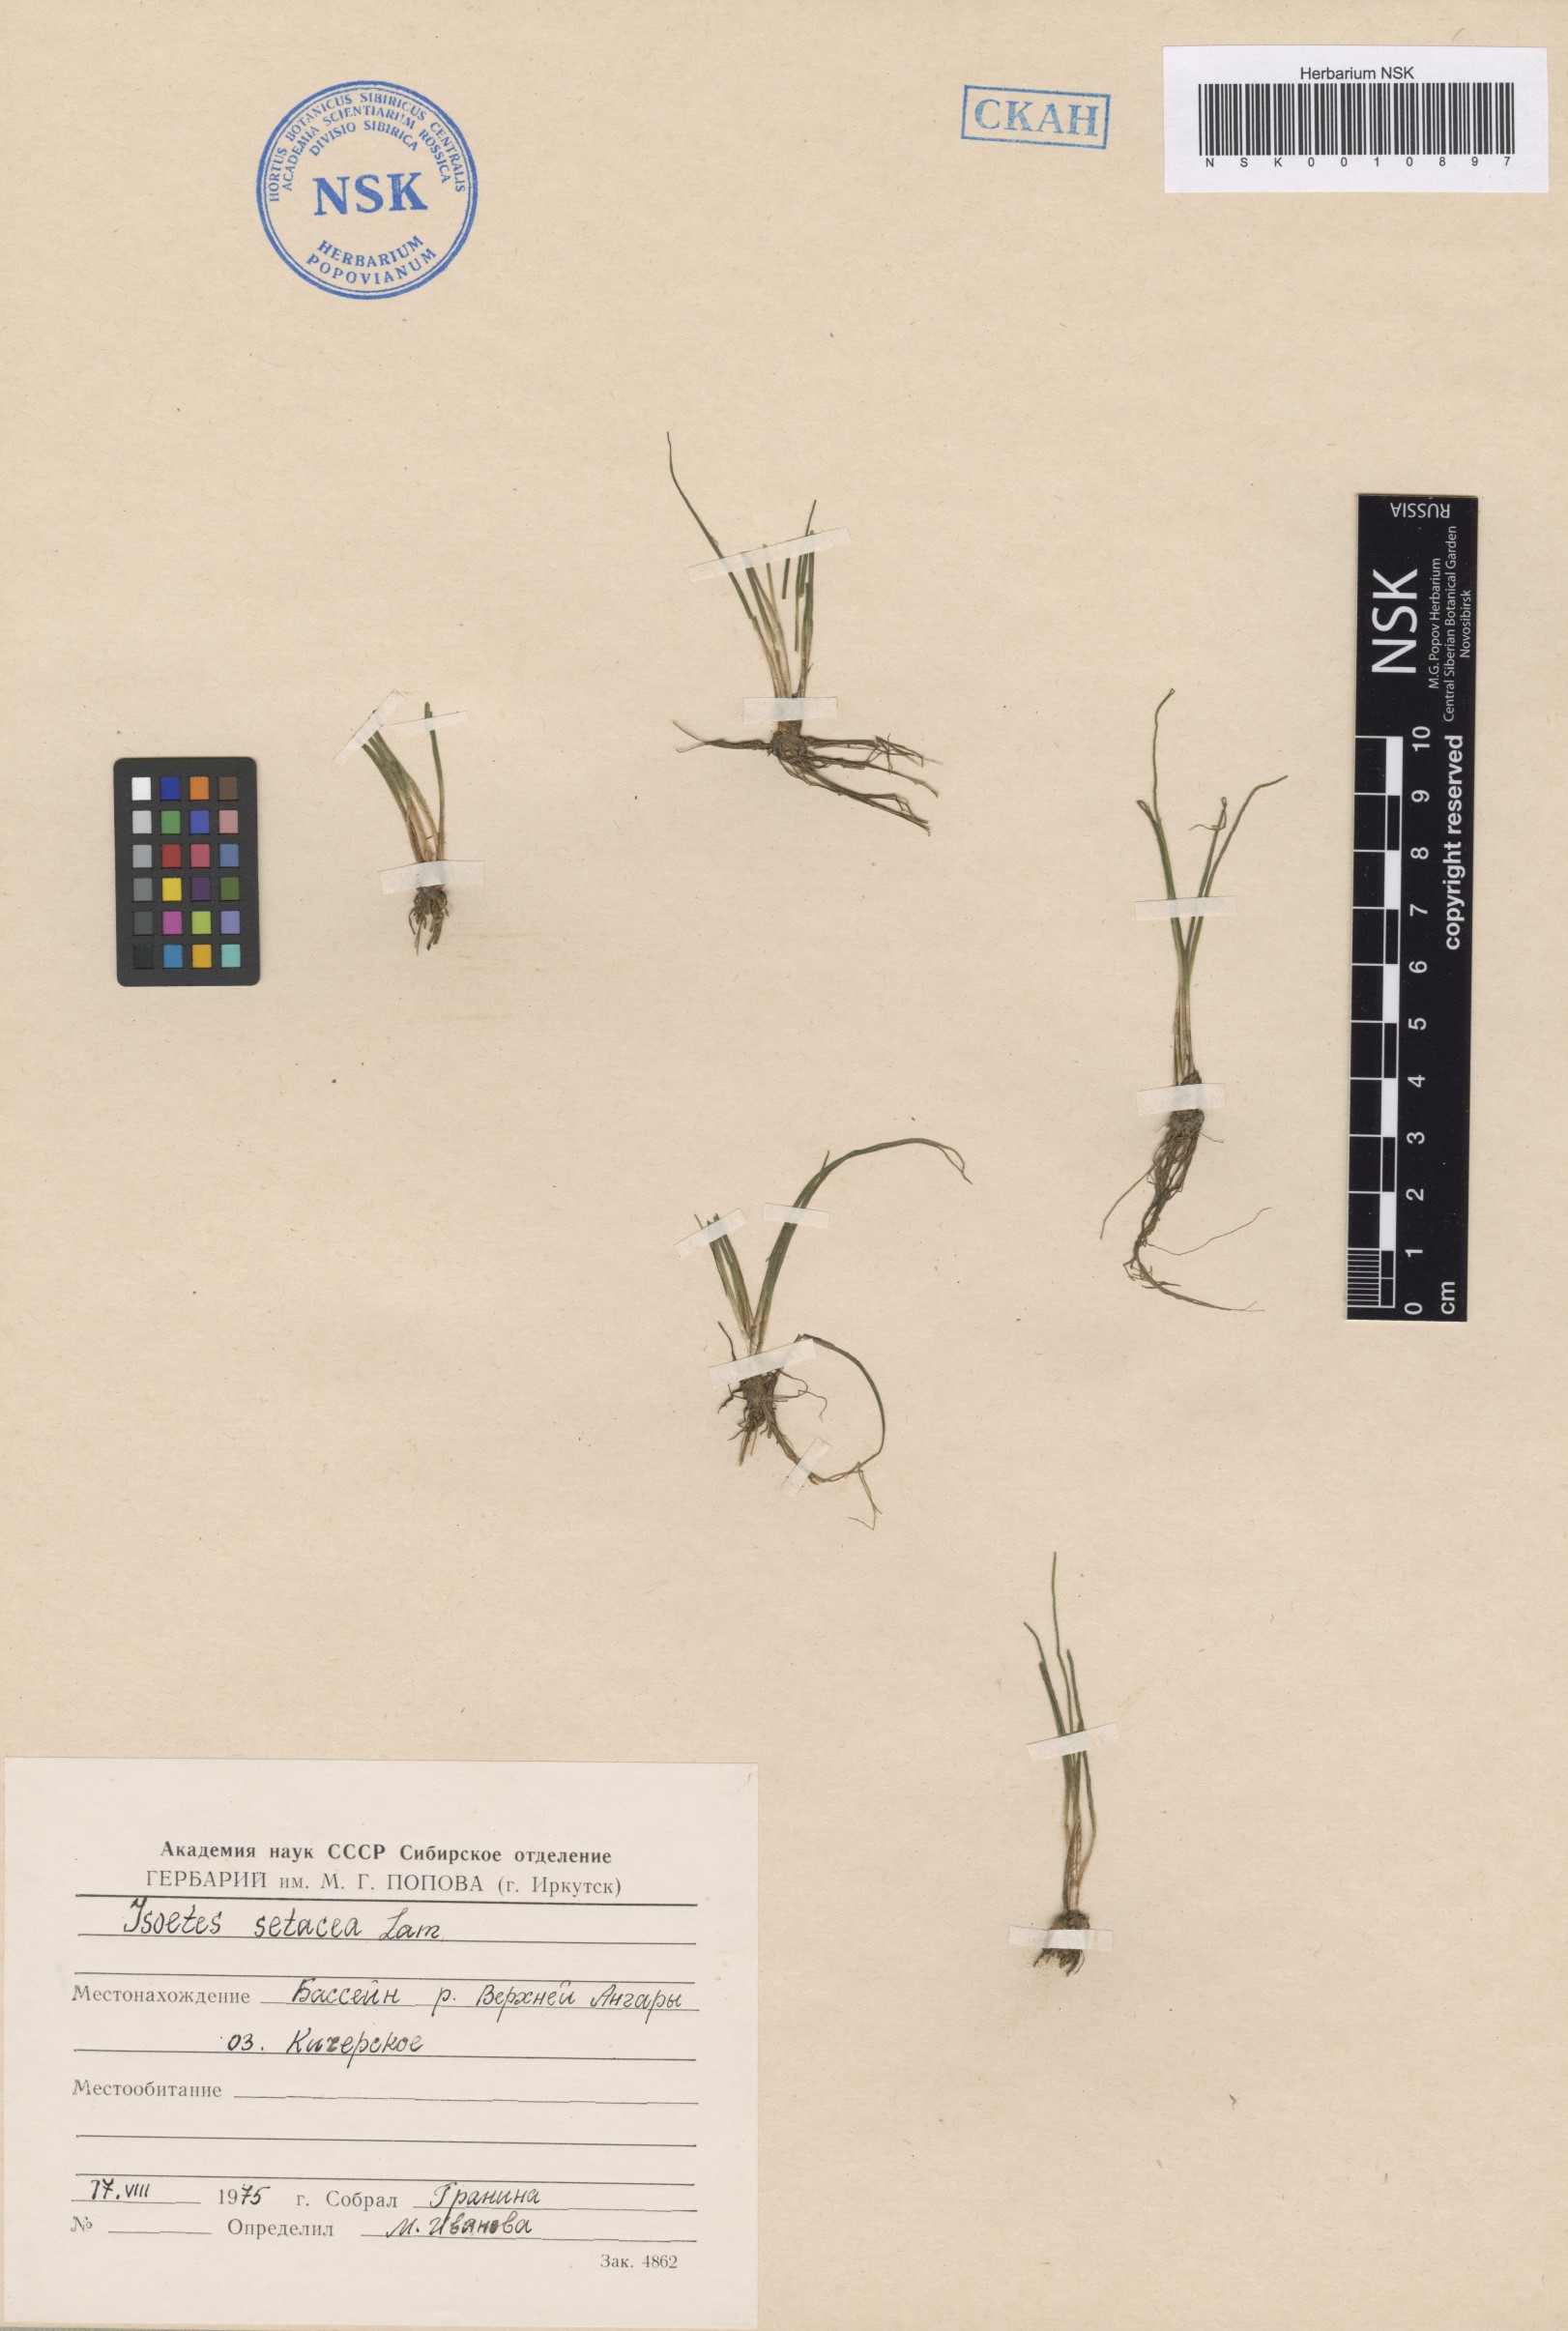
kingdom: Plantae
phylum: Tracheophyta
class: Lycopodiopsida
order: Isoetales
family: Isoetaceae
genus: Isoetes
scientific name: Isoetes lacustris
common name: Common quillwort
